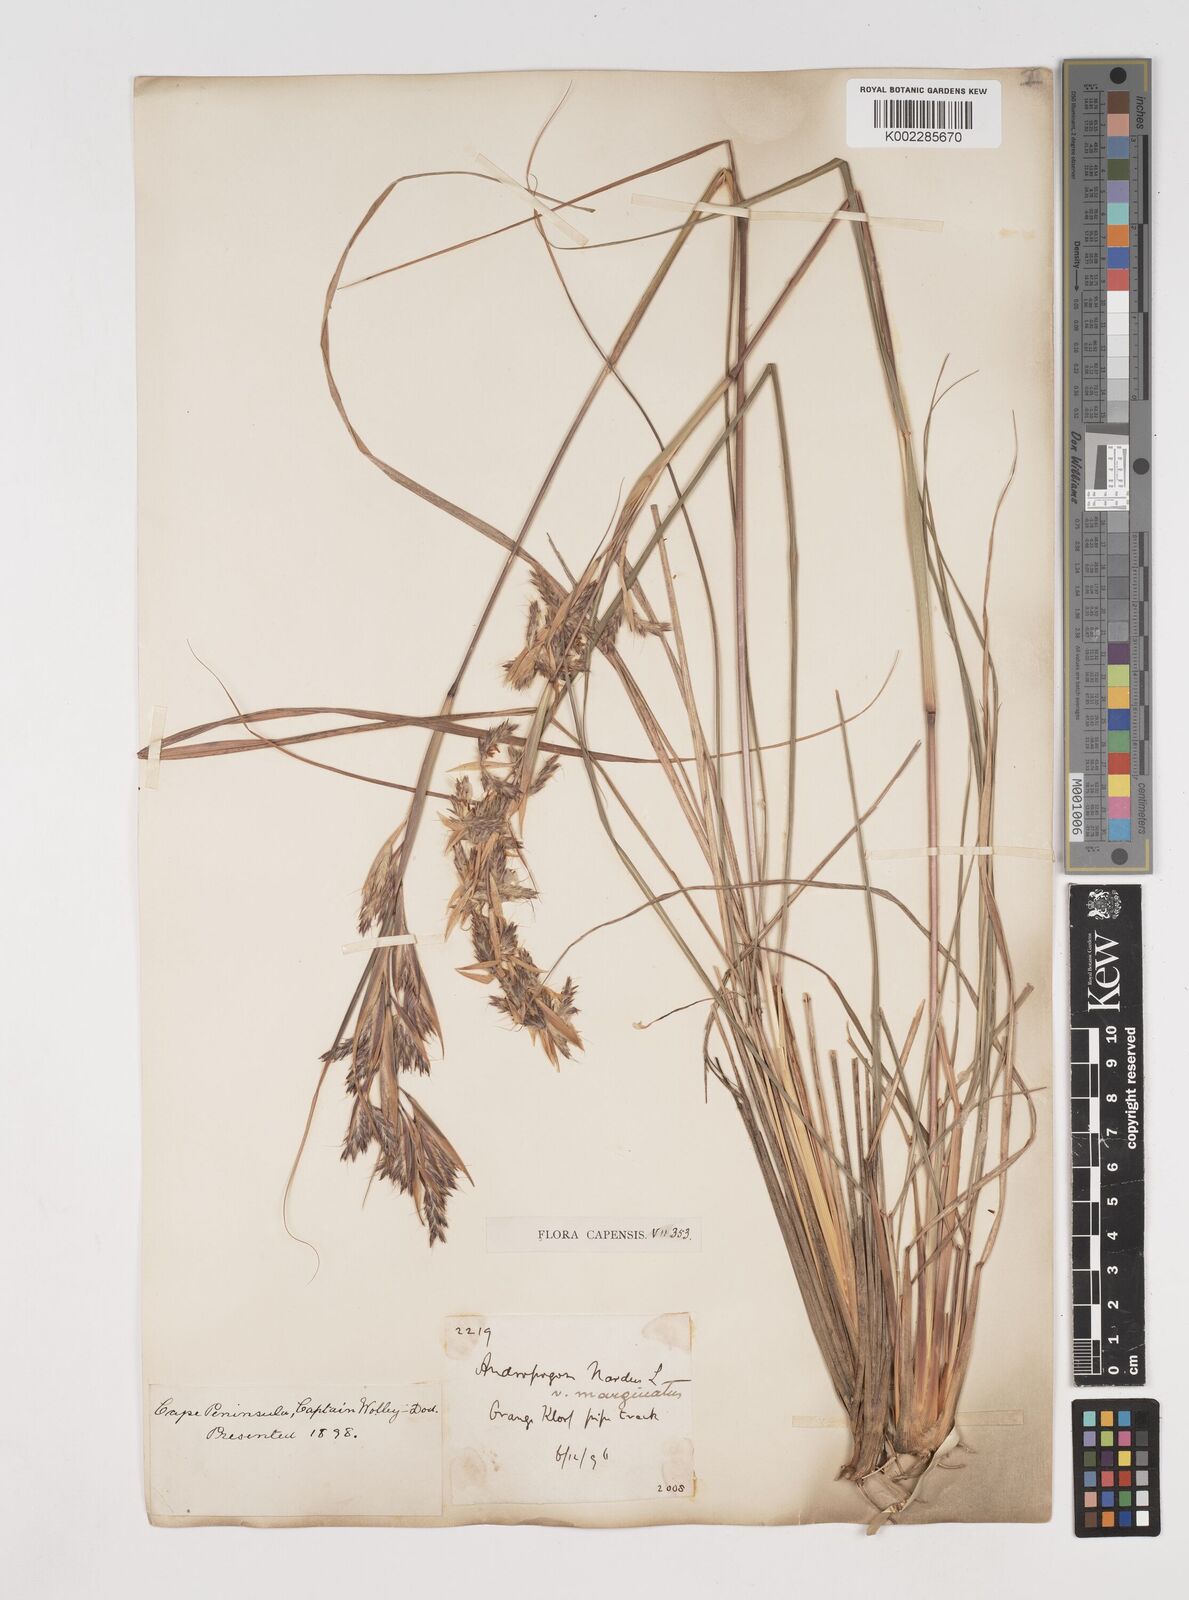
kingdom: Plantae
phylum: Tracheophyta
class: Liliopsida
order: Poales
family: Poaceae
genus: Cymbopogon
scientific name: Cymbopogon marginatus
